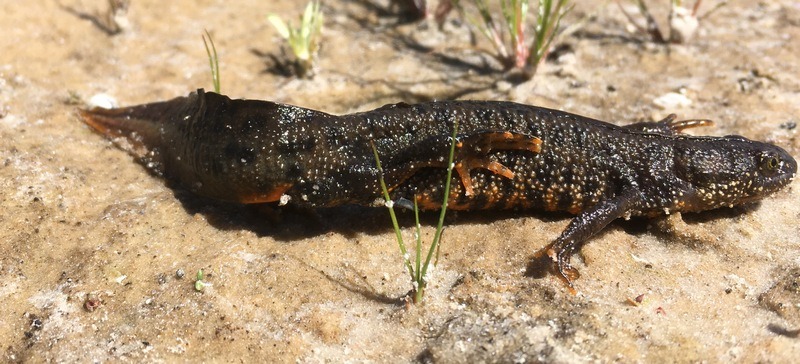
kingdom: Animalia
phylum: Chordata
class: Amphibia
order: Caudata
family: Salamandridae
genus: Triturus
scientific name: Triturus cristatus
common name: Stor vandsalamander
